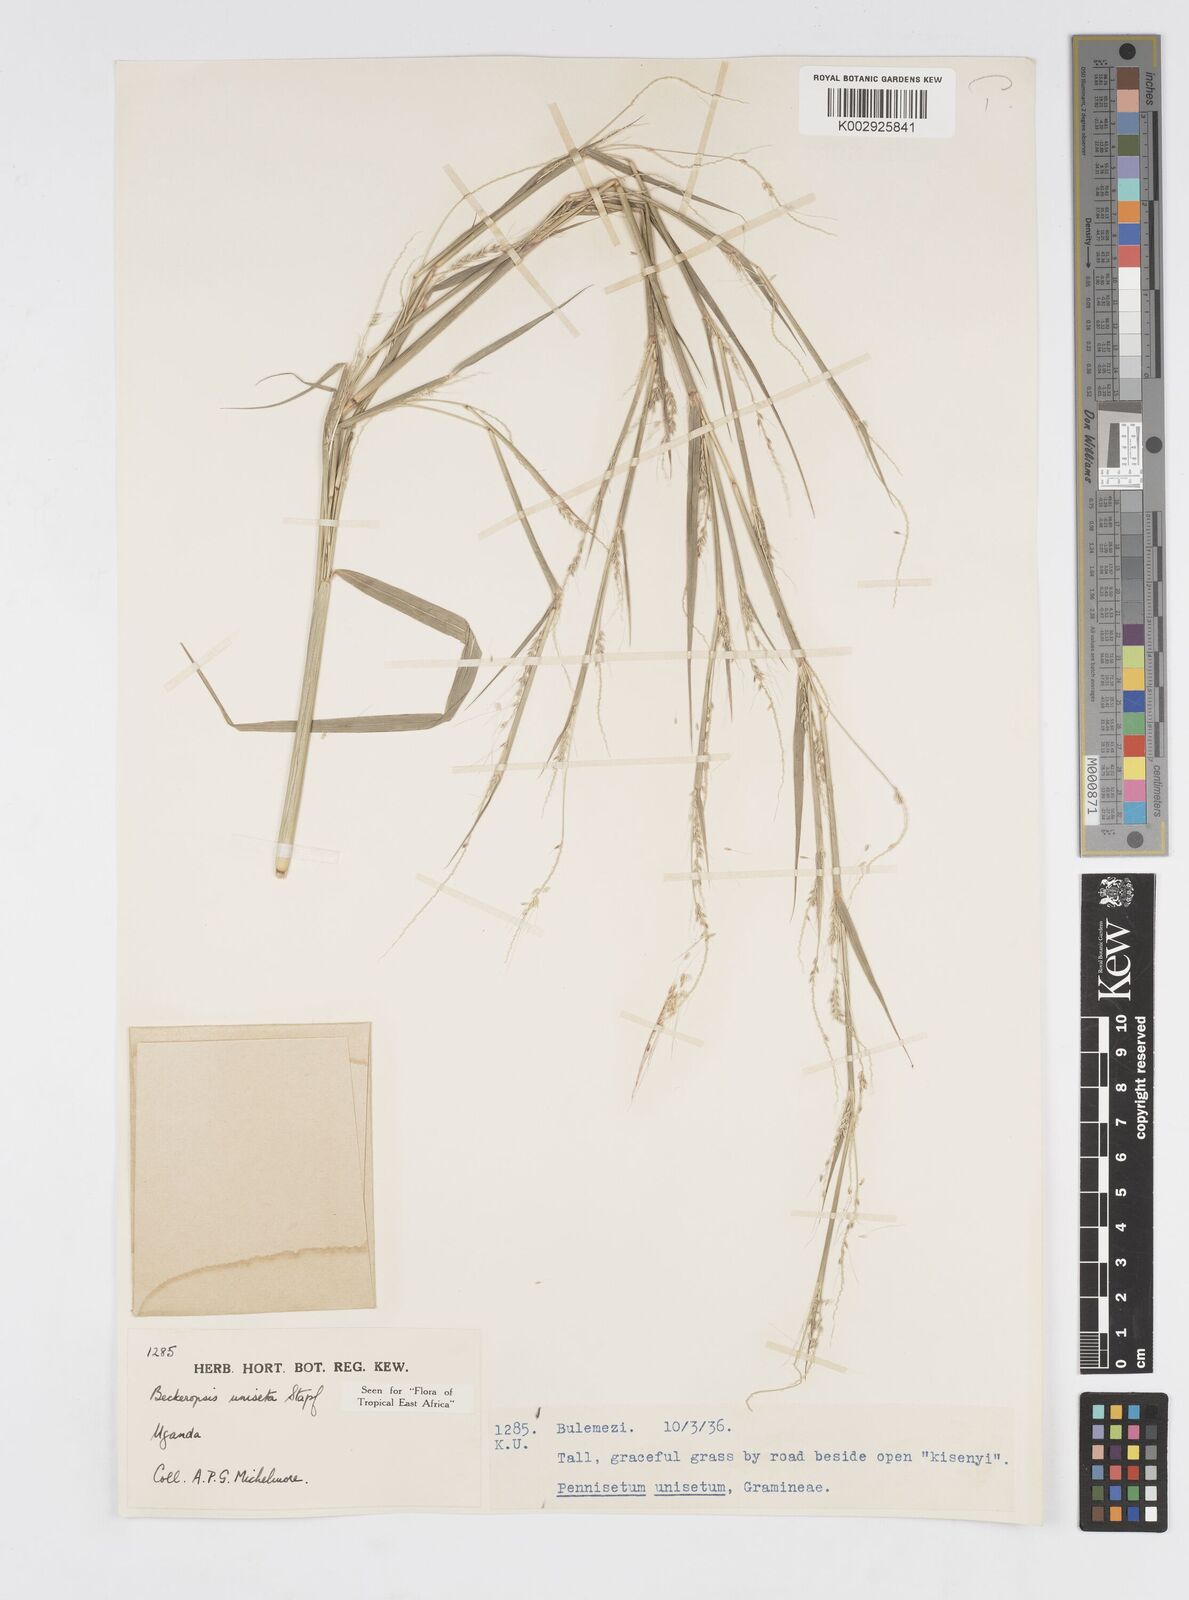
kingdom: Plantae
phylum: Tracheophyta
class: Liliopsida
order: Poales
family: Poaceae
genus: Cenchrus
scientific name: Cenchrus unisetus
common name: Natal grass
